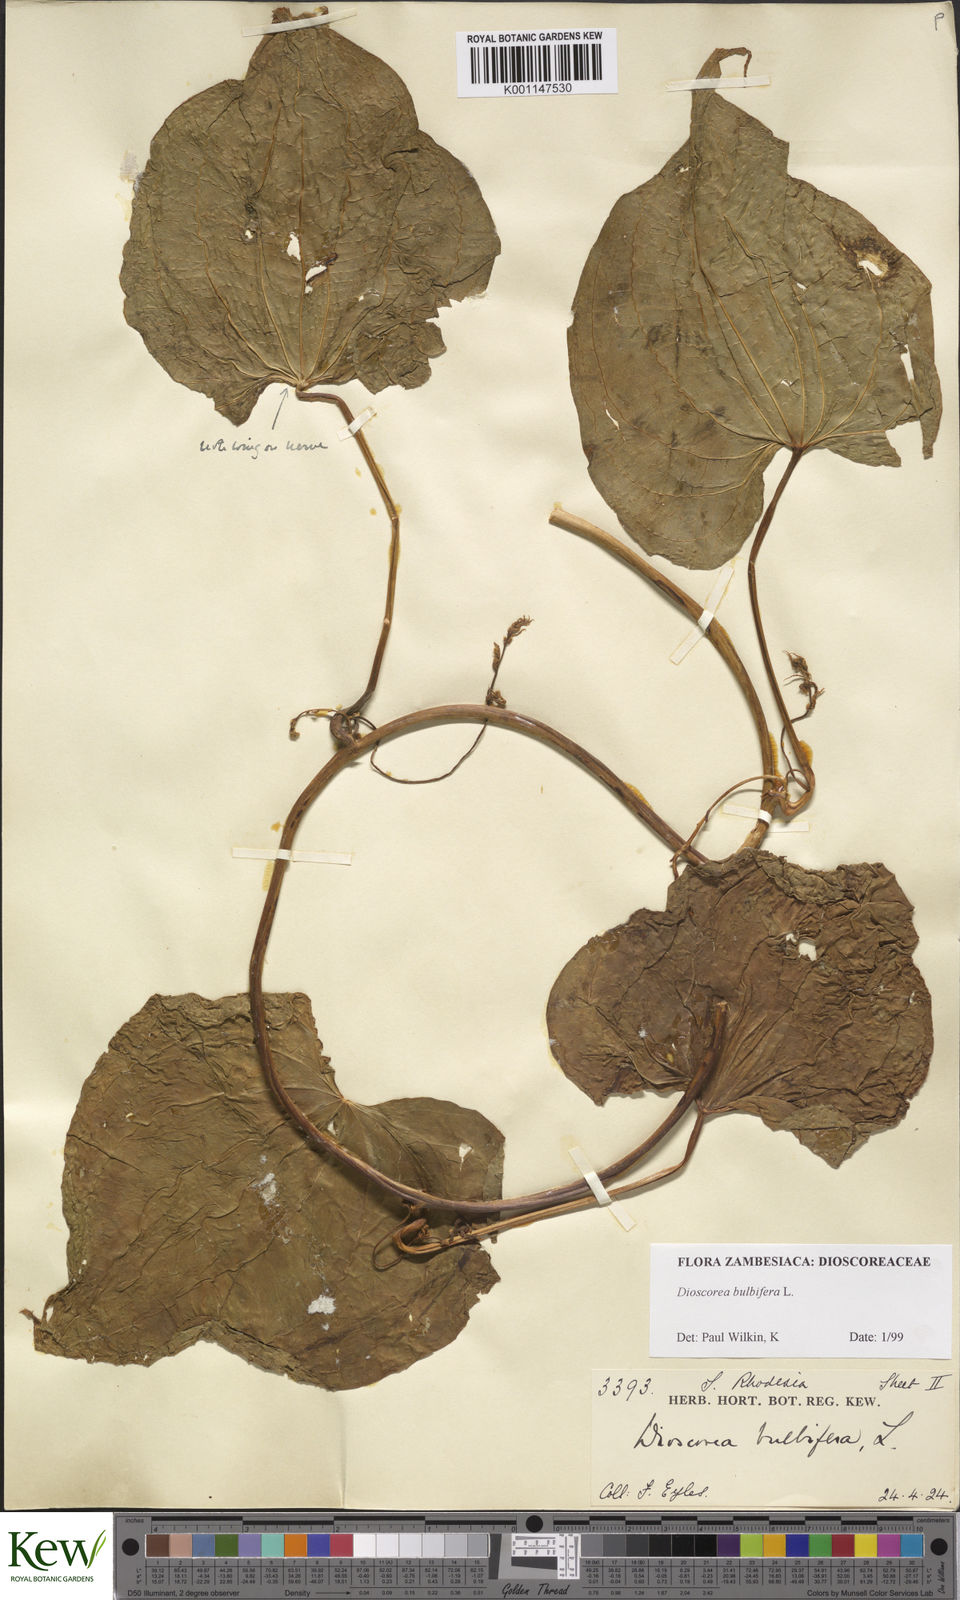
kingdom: Plantae
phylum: Tracheophyta
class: Liliopsida
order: Dioscoreales
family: Dioscoreaceae
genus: Dioscorea
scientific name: Dioscorea bulbifera
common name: Air yam
